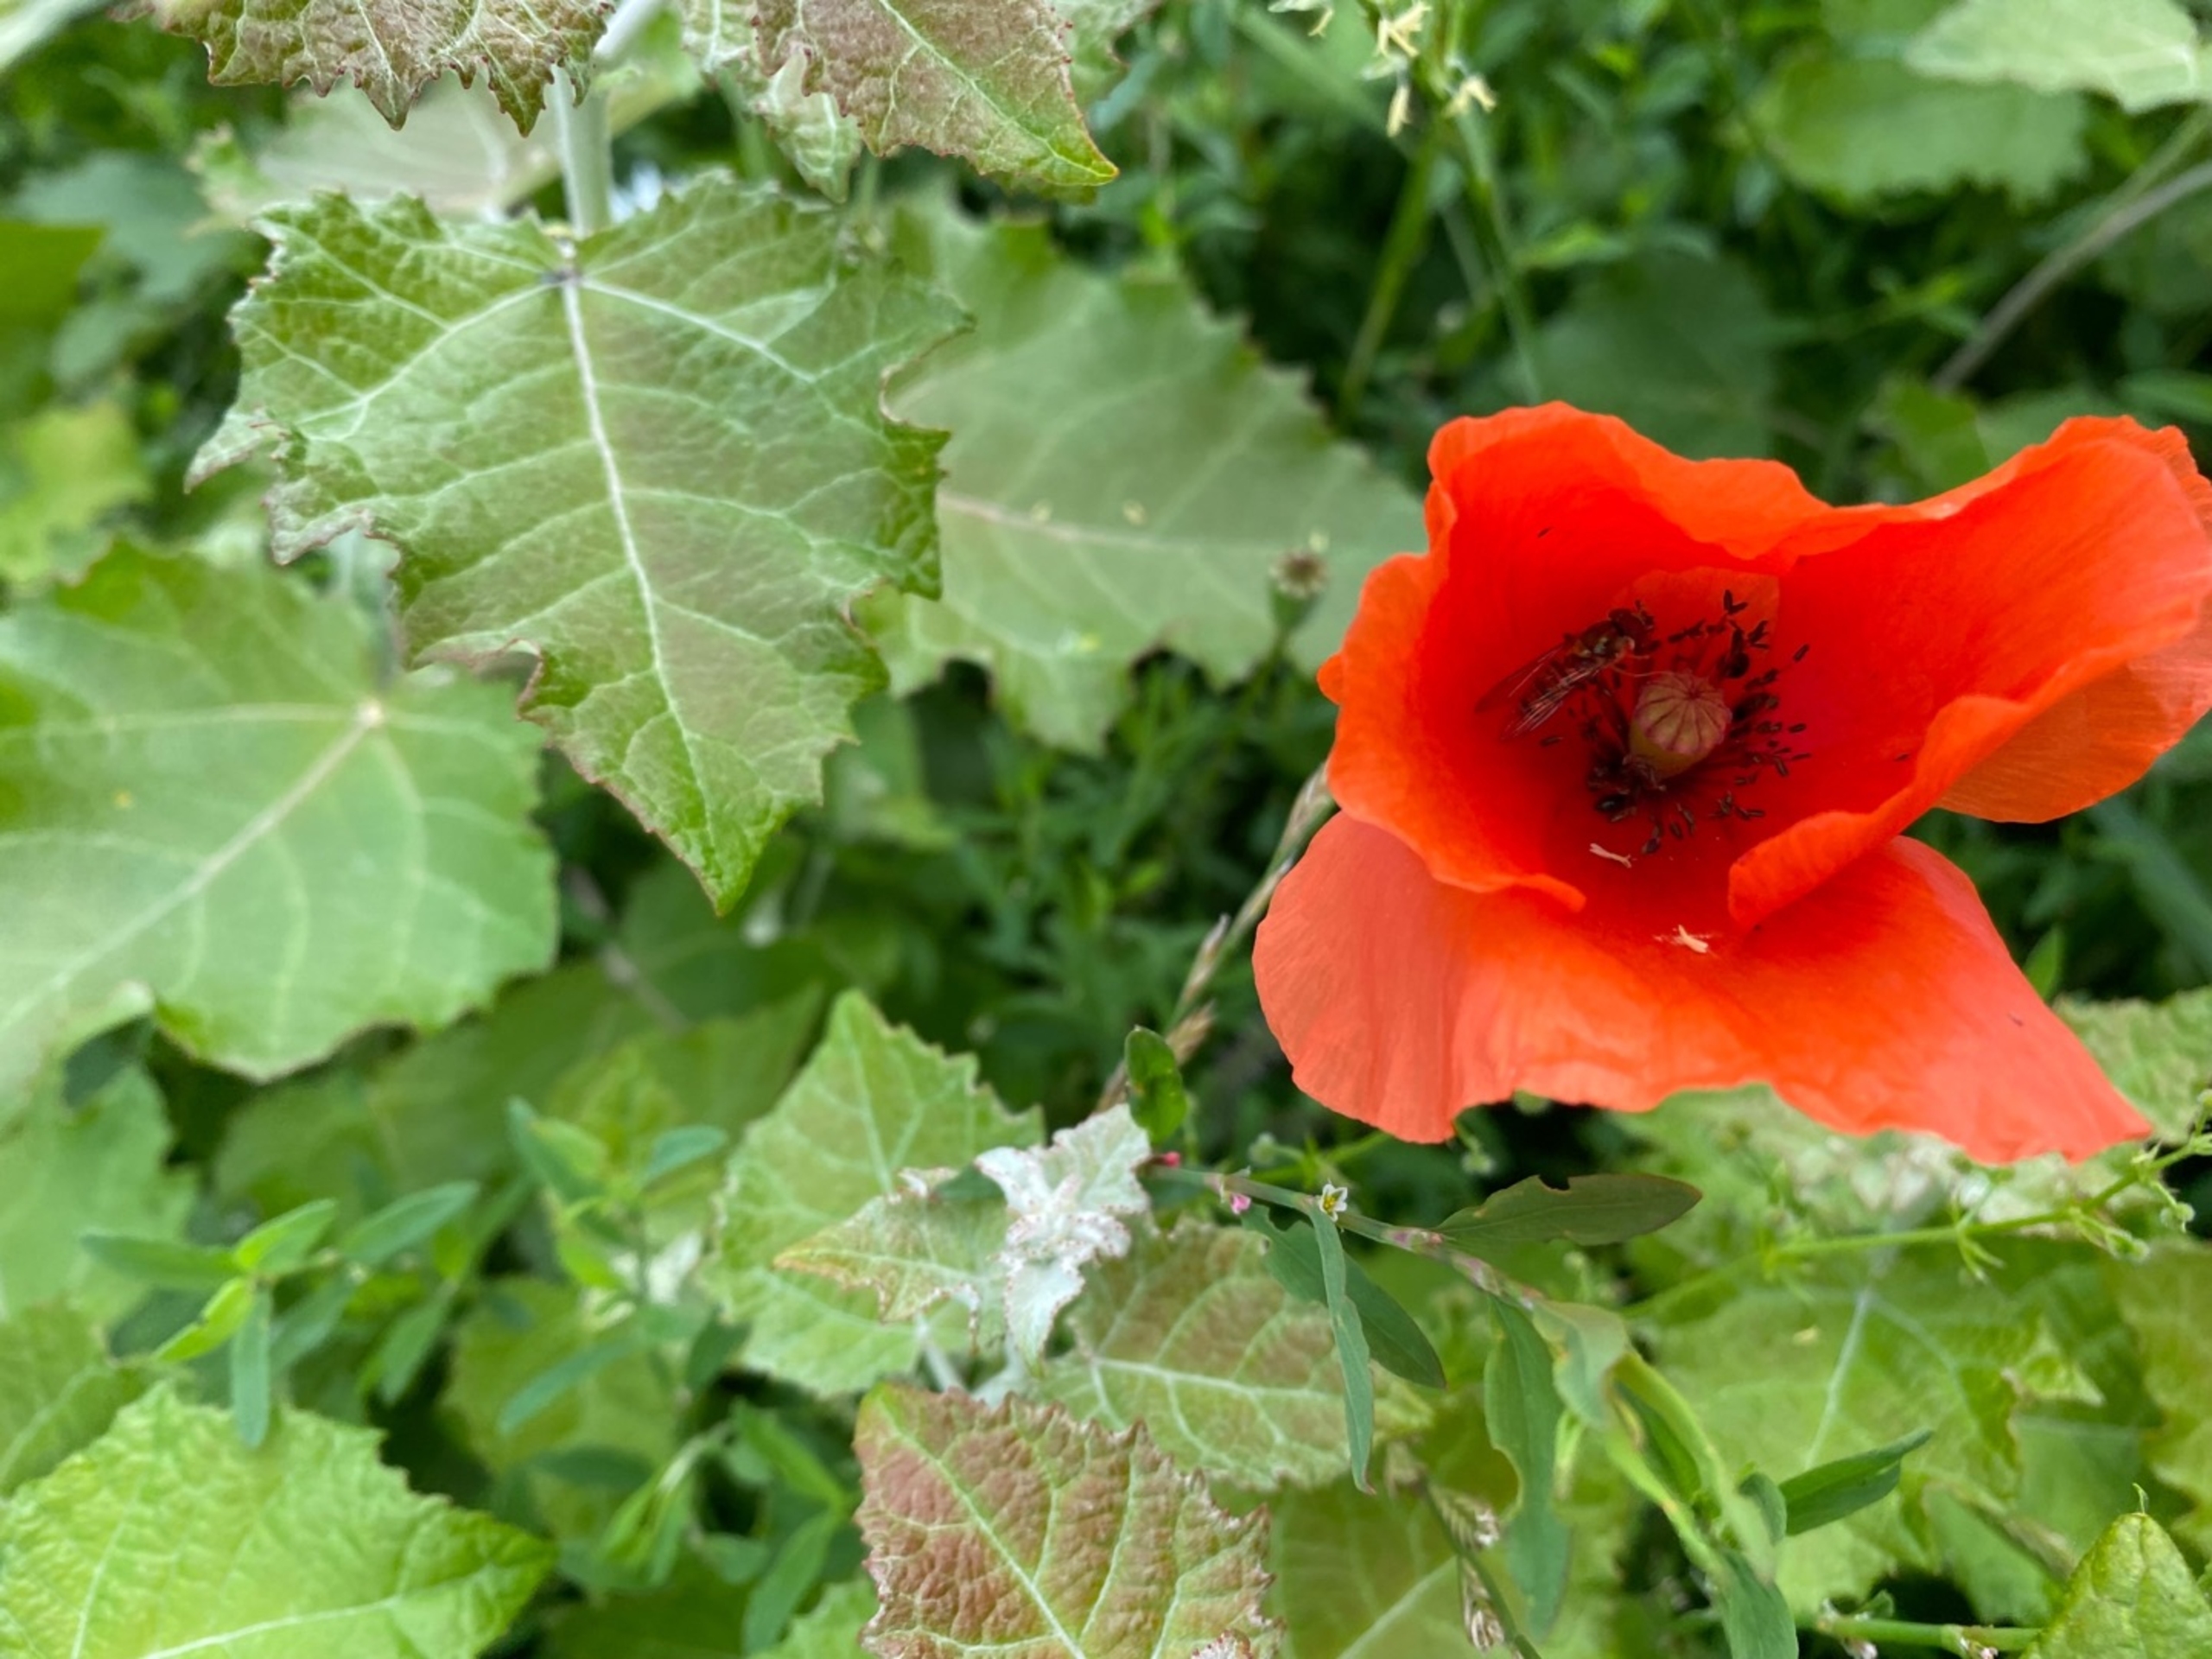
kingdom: Plantae
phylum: Tracheophyta
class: Magnoliopsida
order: Ranunculales
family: Papaveraceae
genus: Papaver
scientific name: Papaver rhoeas
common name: Korn-valmue
